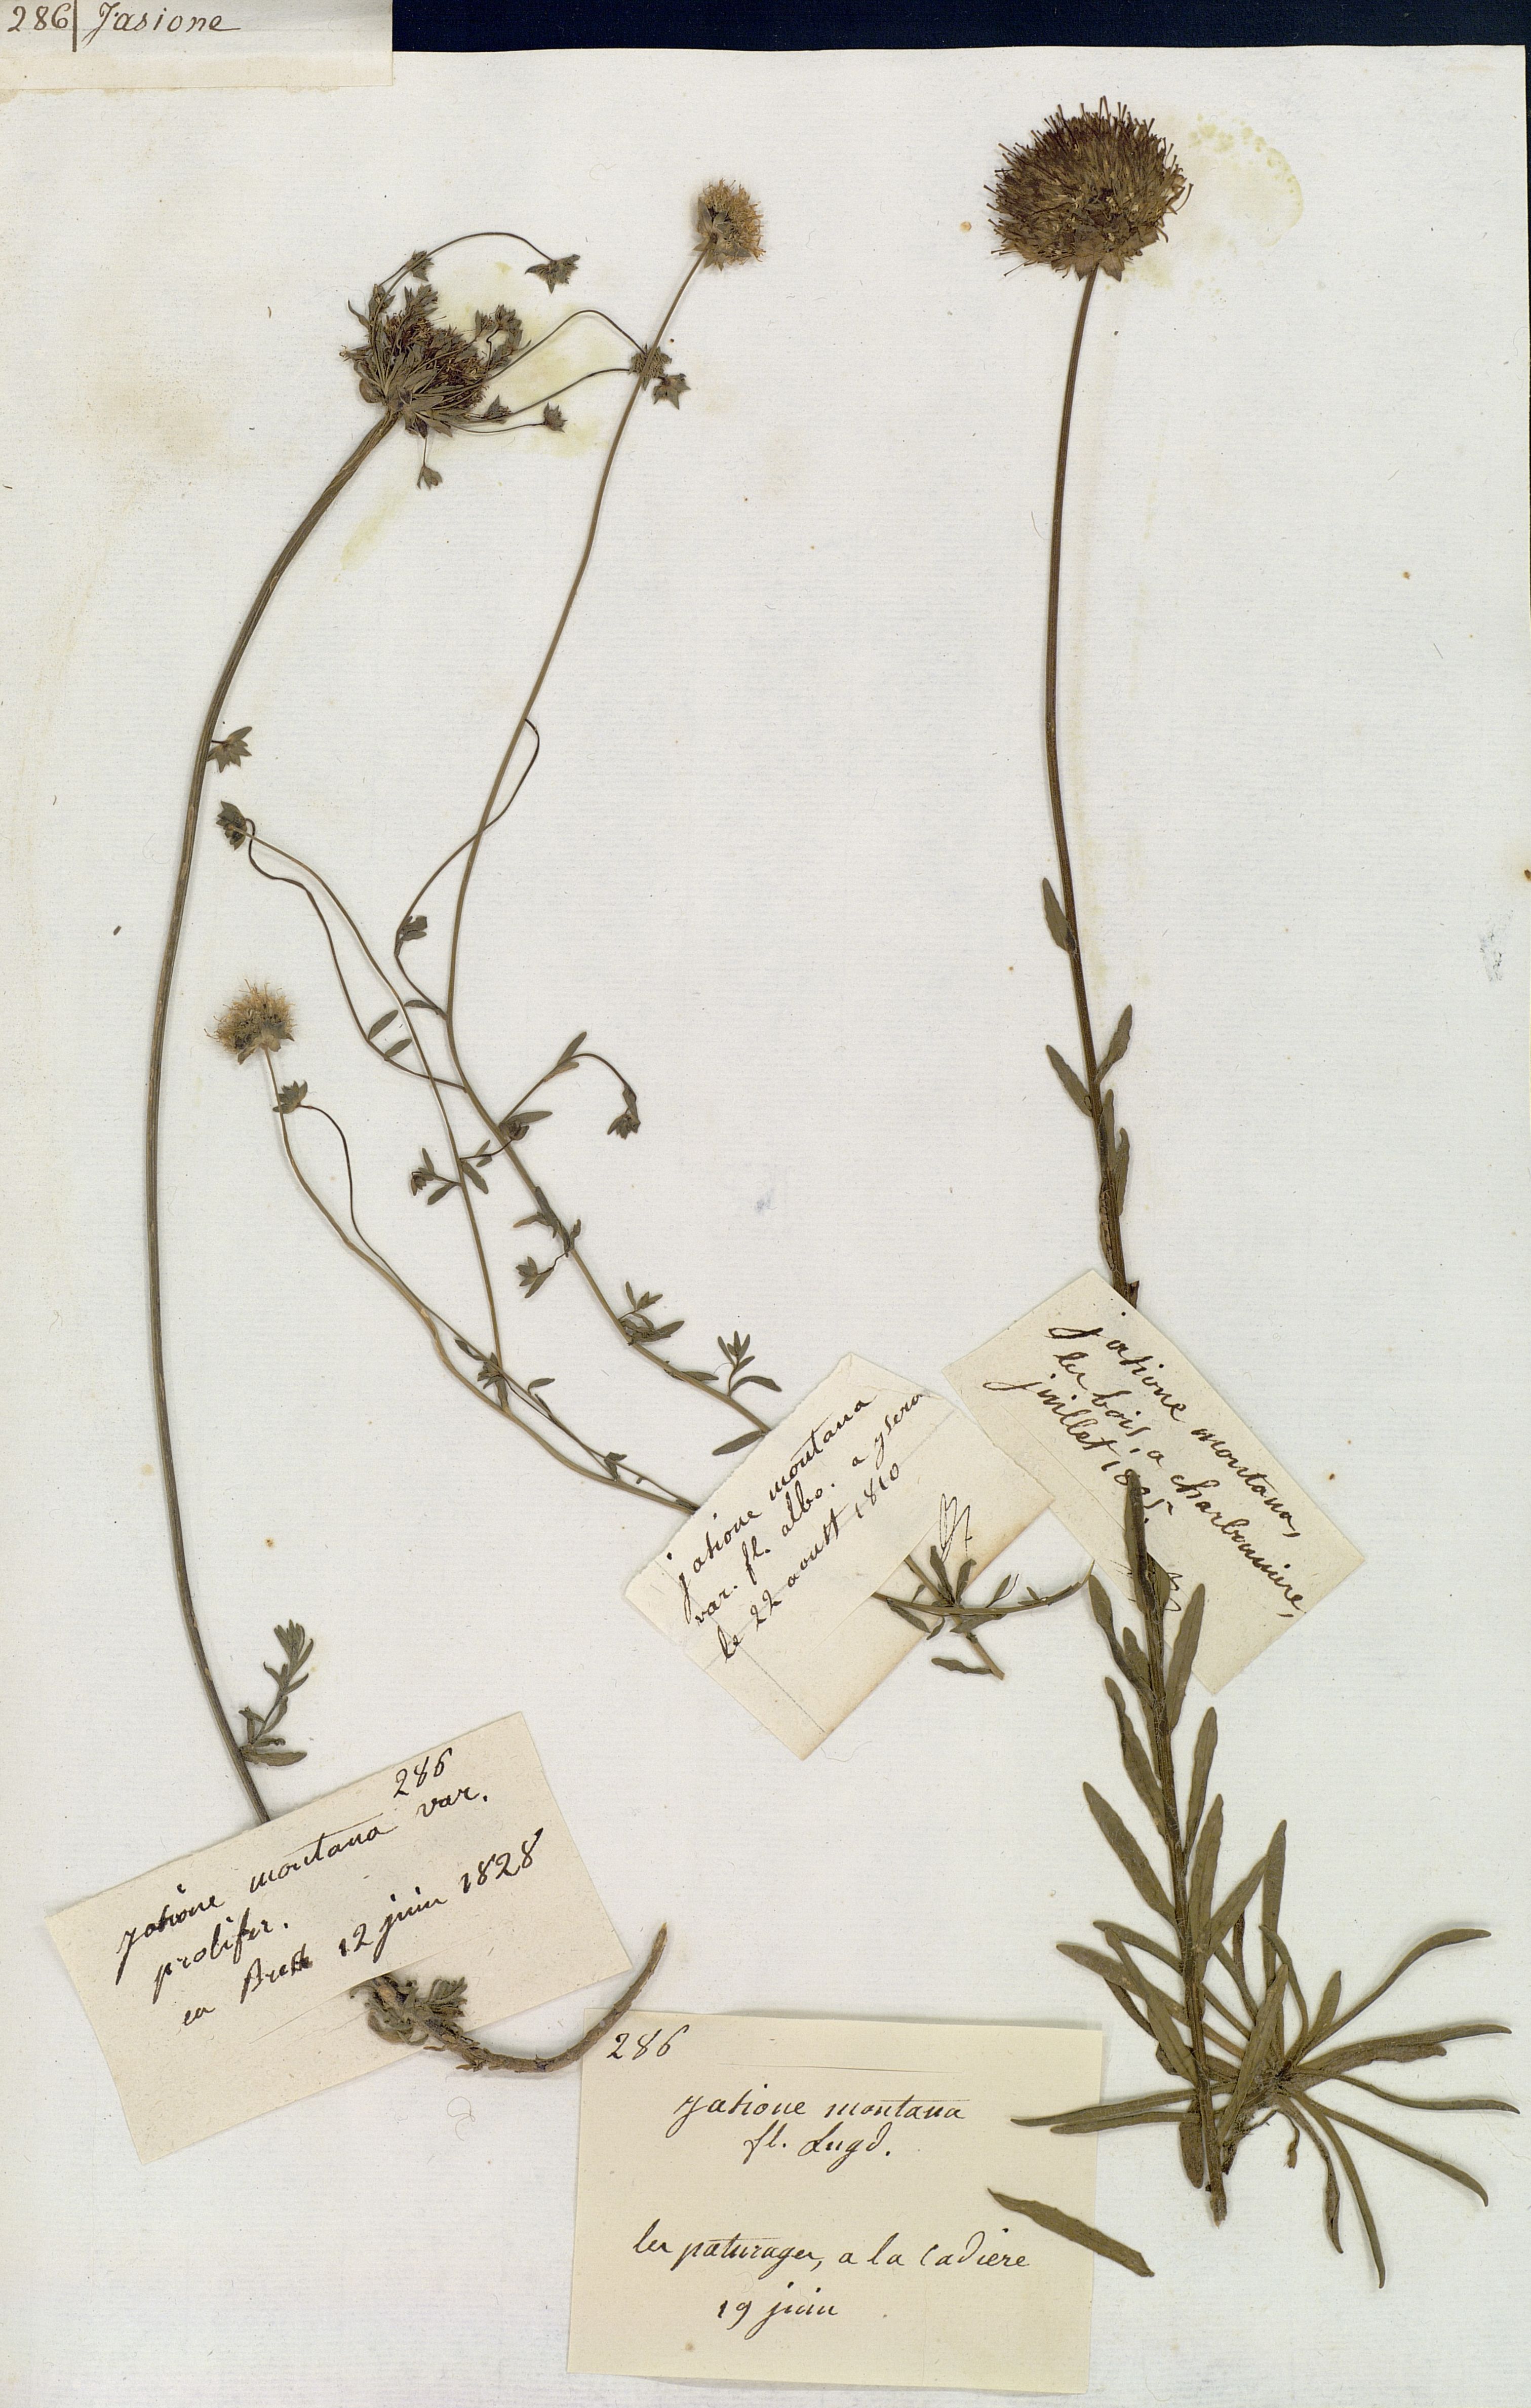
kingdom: Plantae
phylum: Tracheophyta
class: Magnoliopsida
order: Asterales
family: Campanulaceae
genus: Jasione
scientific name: Jasione montana
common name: Sheep's-bit
